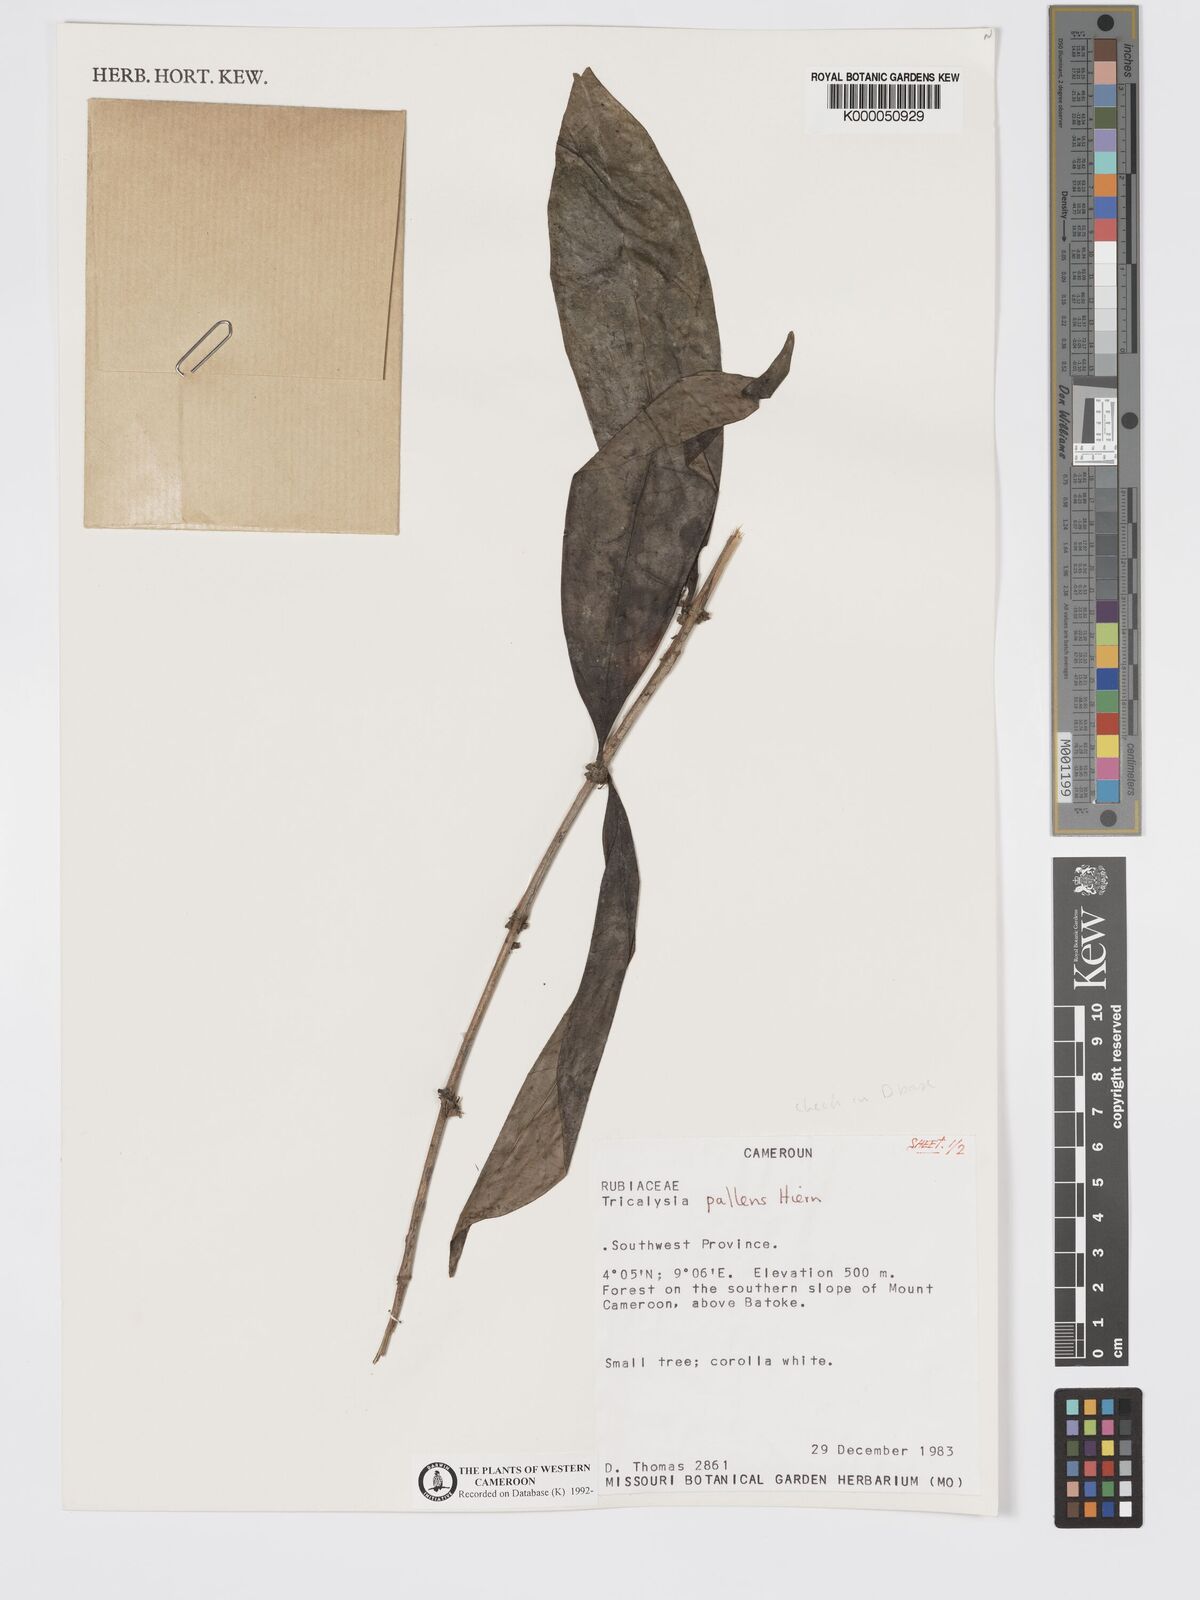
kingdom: Plantae
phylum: Tracheophyta
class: Magnoliopsida
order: Gentianales
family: Rubiaceae
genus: Tricalysia
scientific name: Tricalysia pallens
